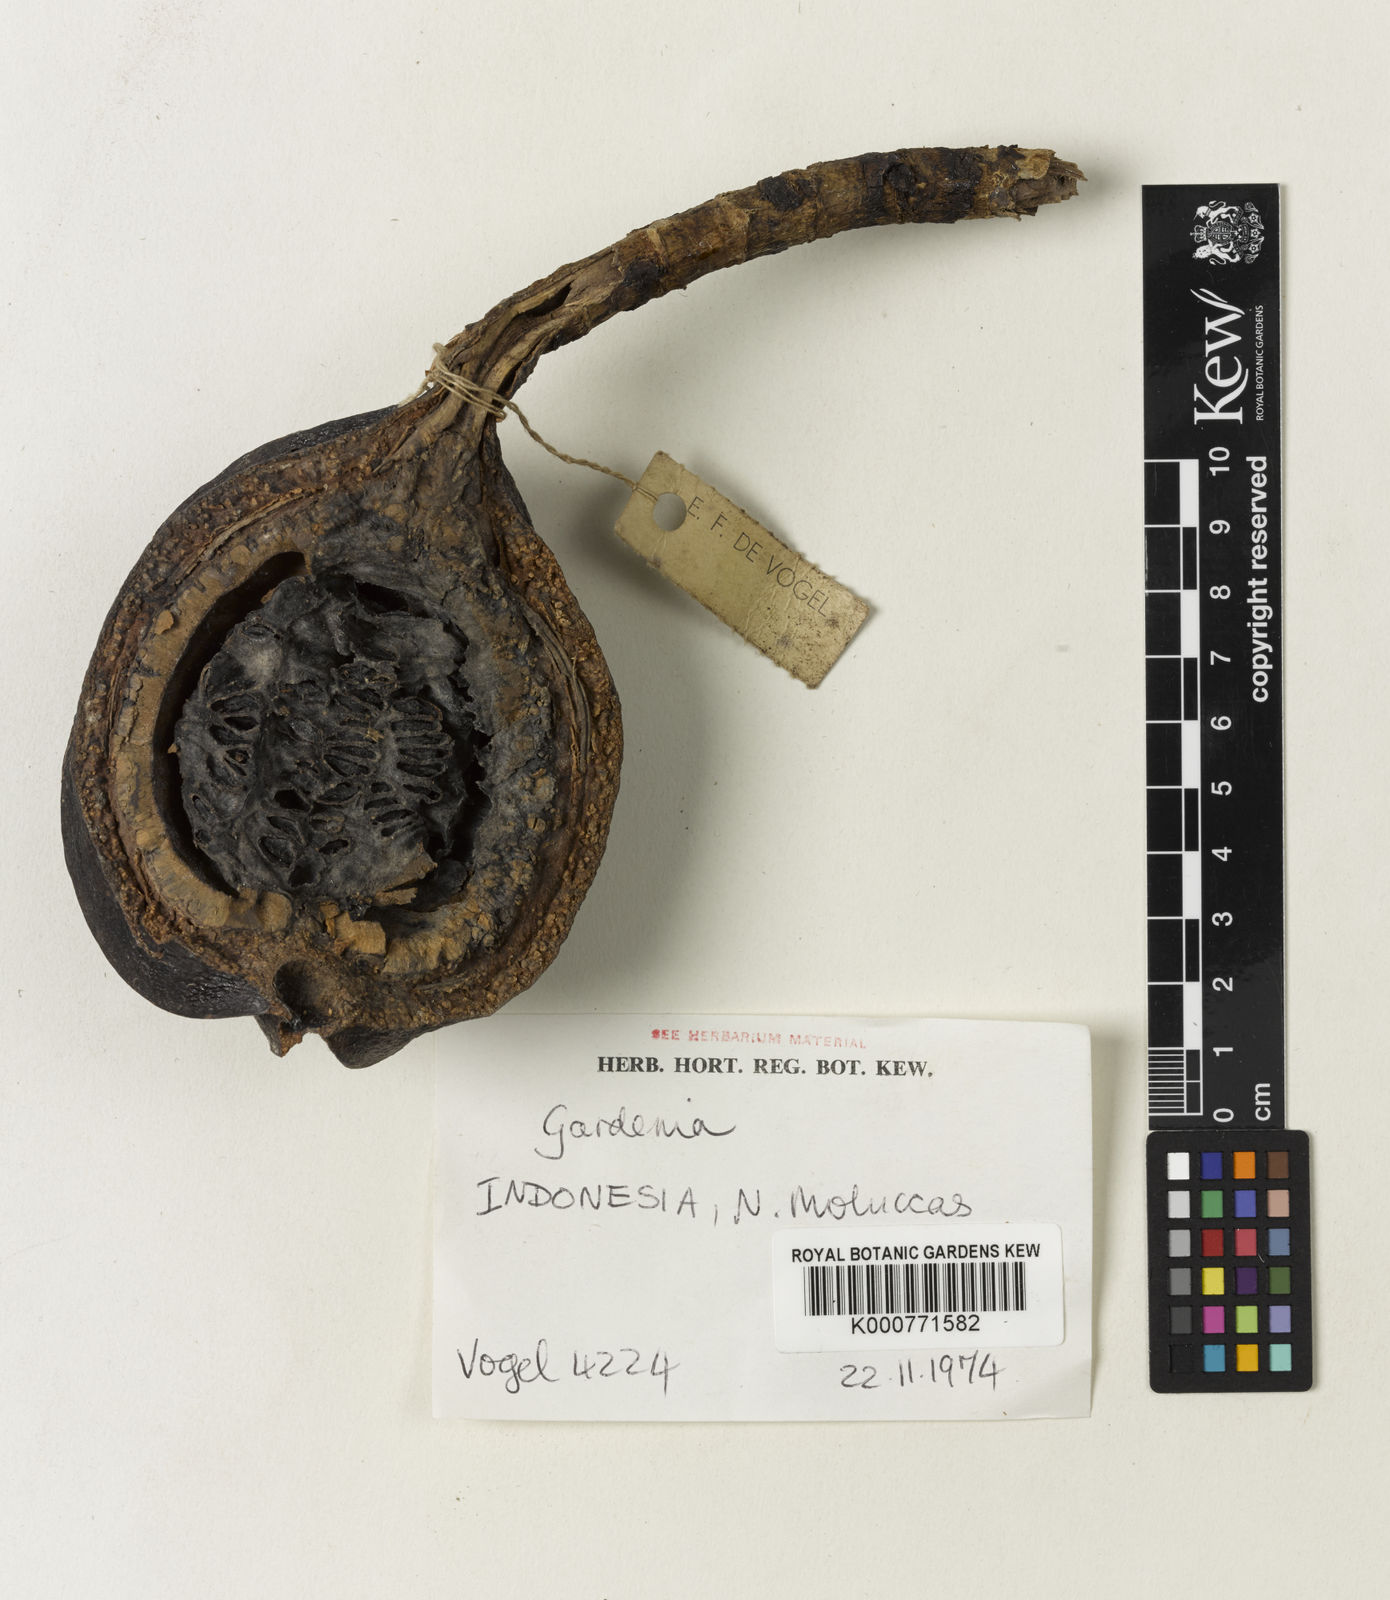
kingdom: Plantae
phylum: Tracheophyta
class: Magnoliopsida
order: Gentianales
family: Rubiaceae
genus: Gardenia
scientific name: Gardenia
